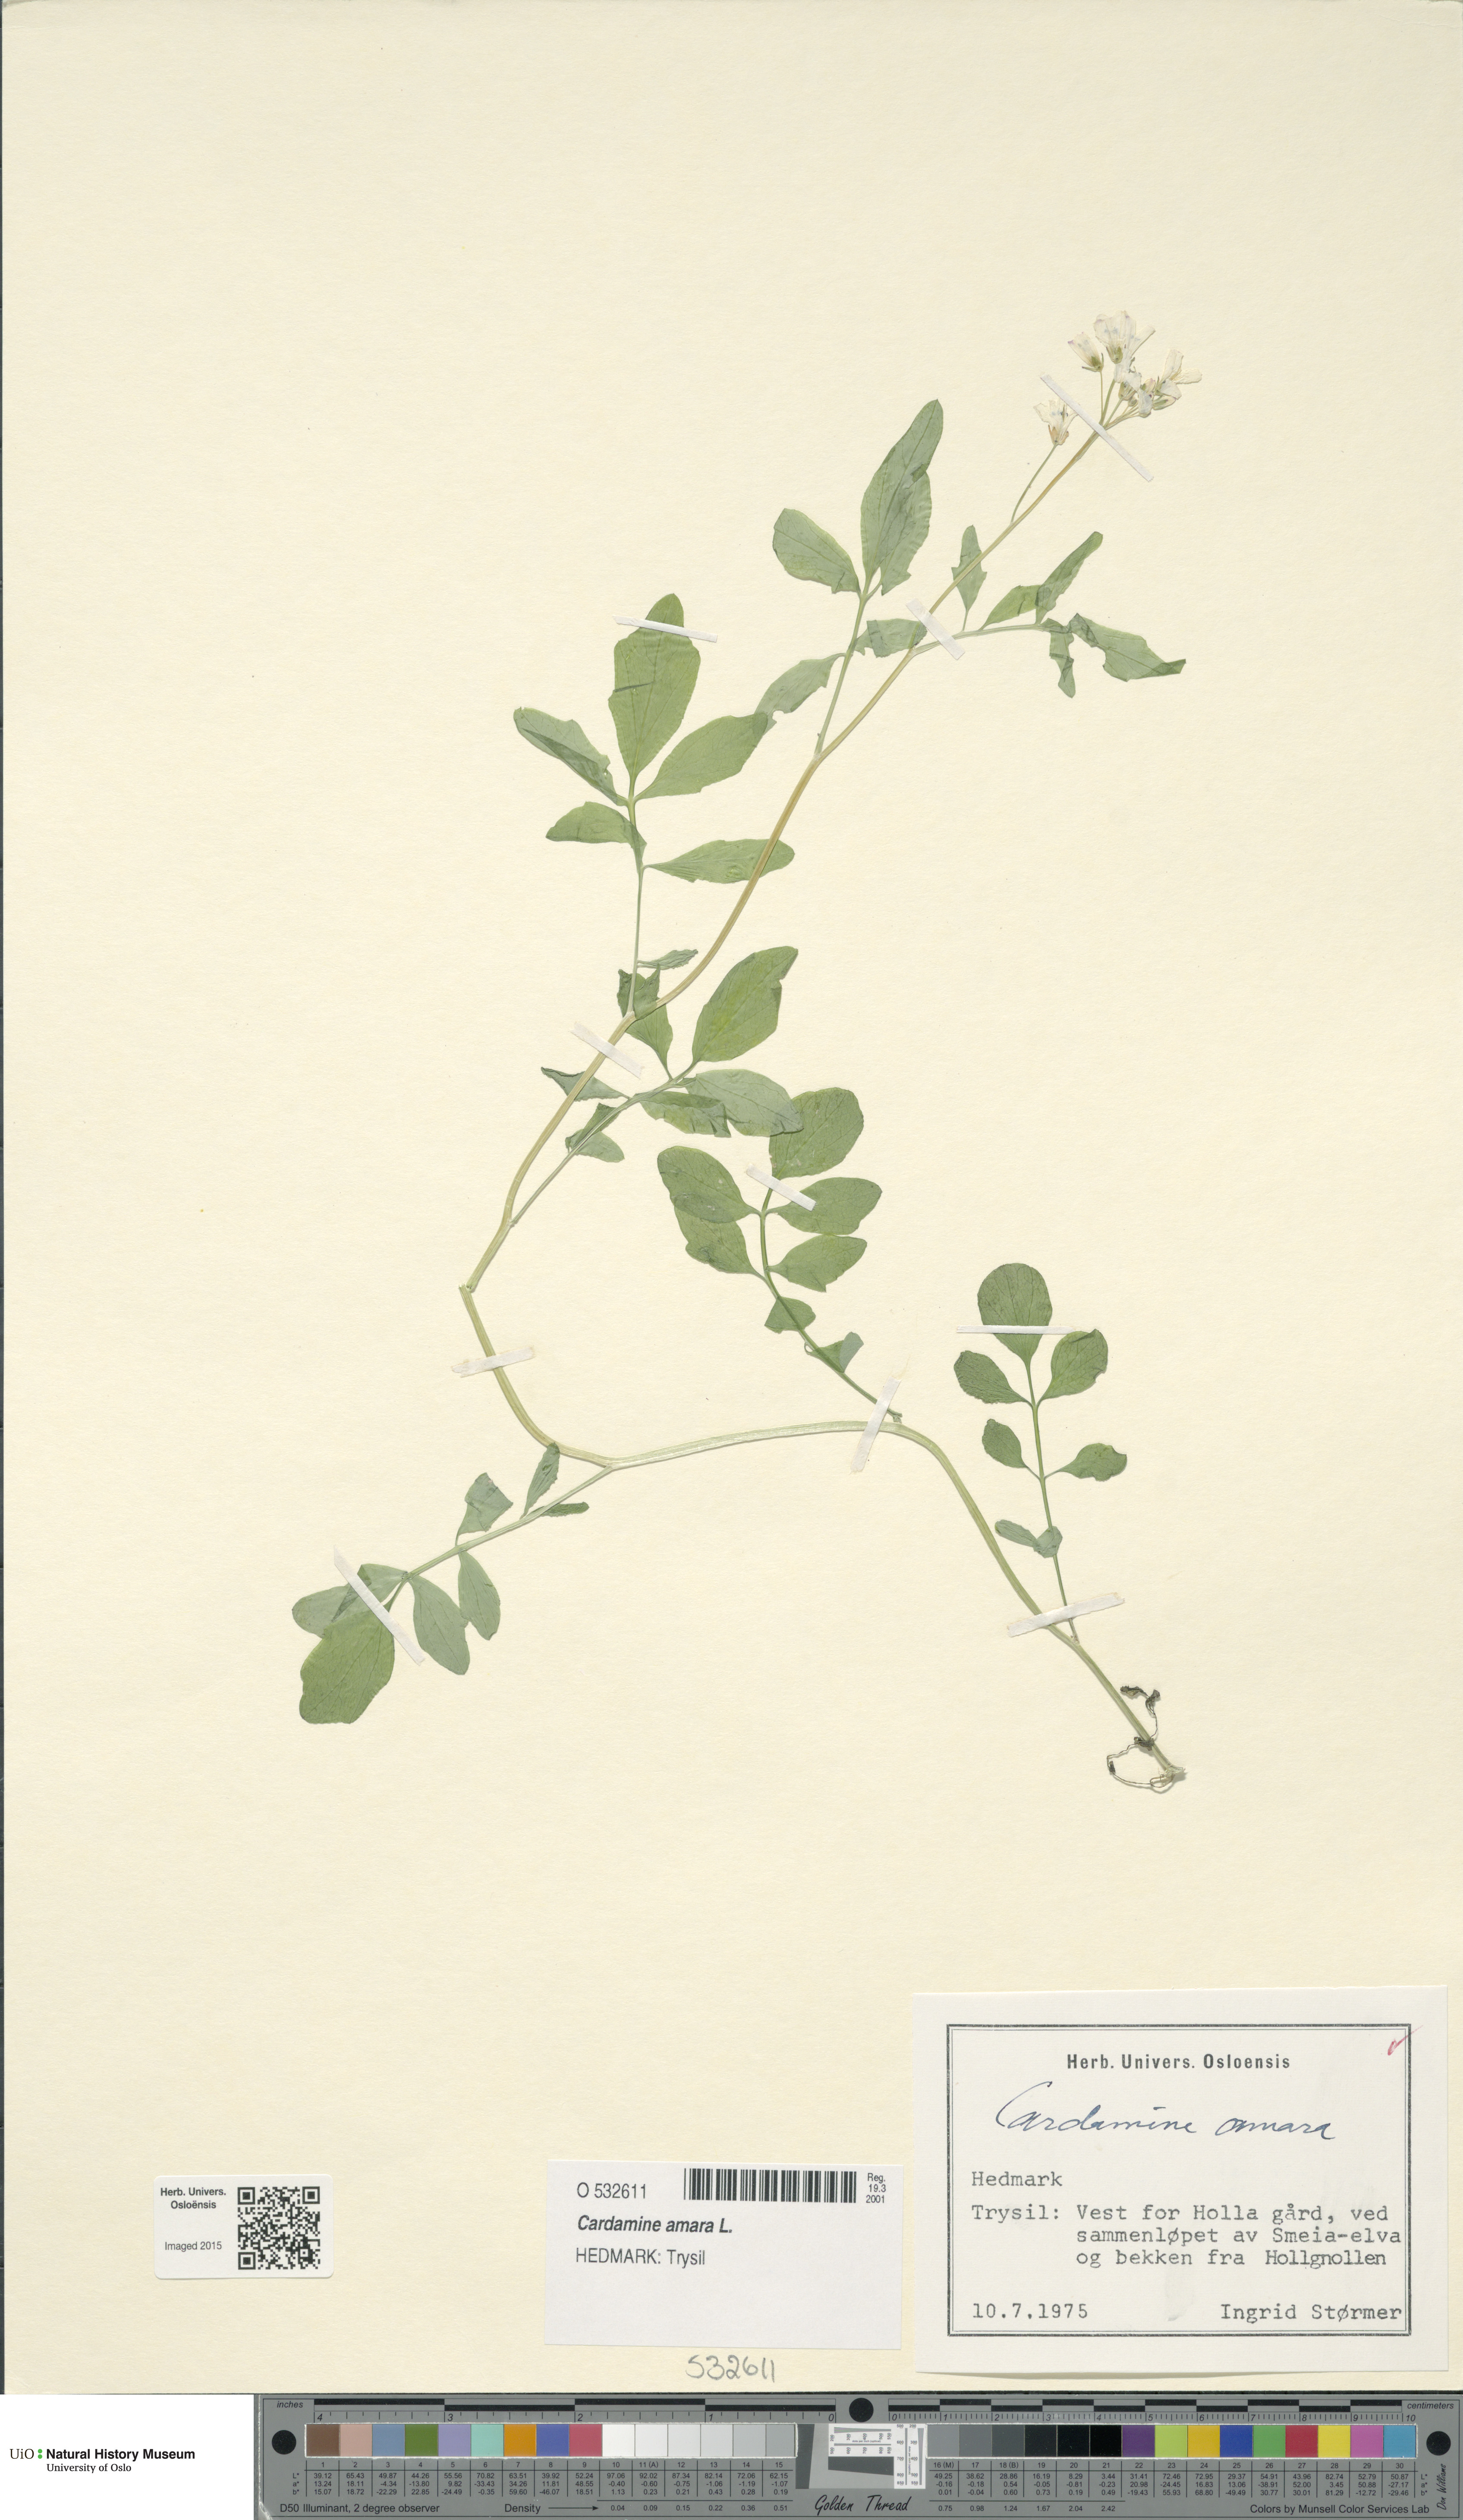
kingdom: Plantae
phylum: Tracheophyta
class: Magnoliopsida
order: Brassicales
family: Brassicaceae
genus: Cardamine
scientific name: Cardamine amara
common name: Large bitter-cress
